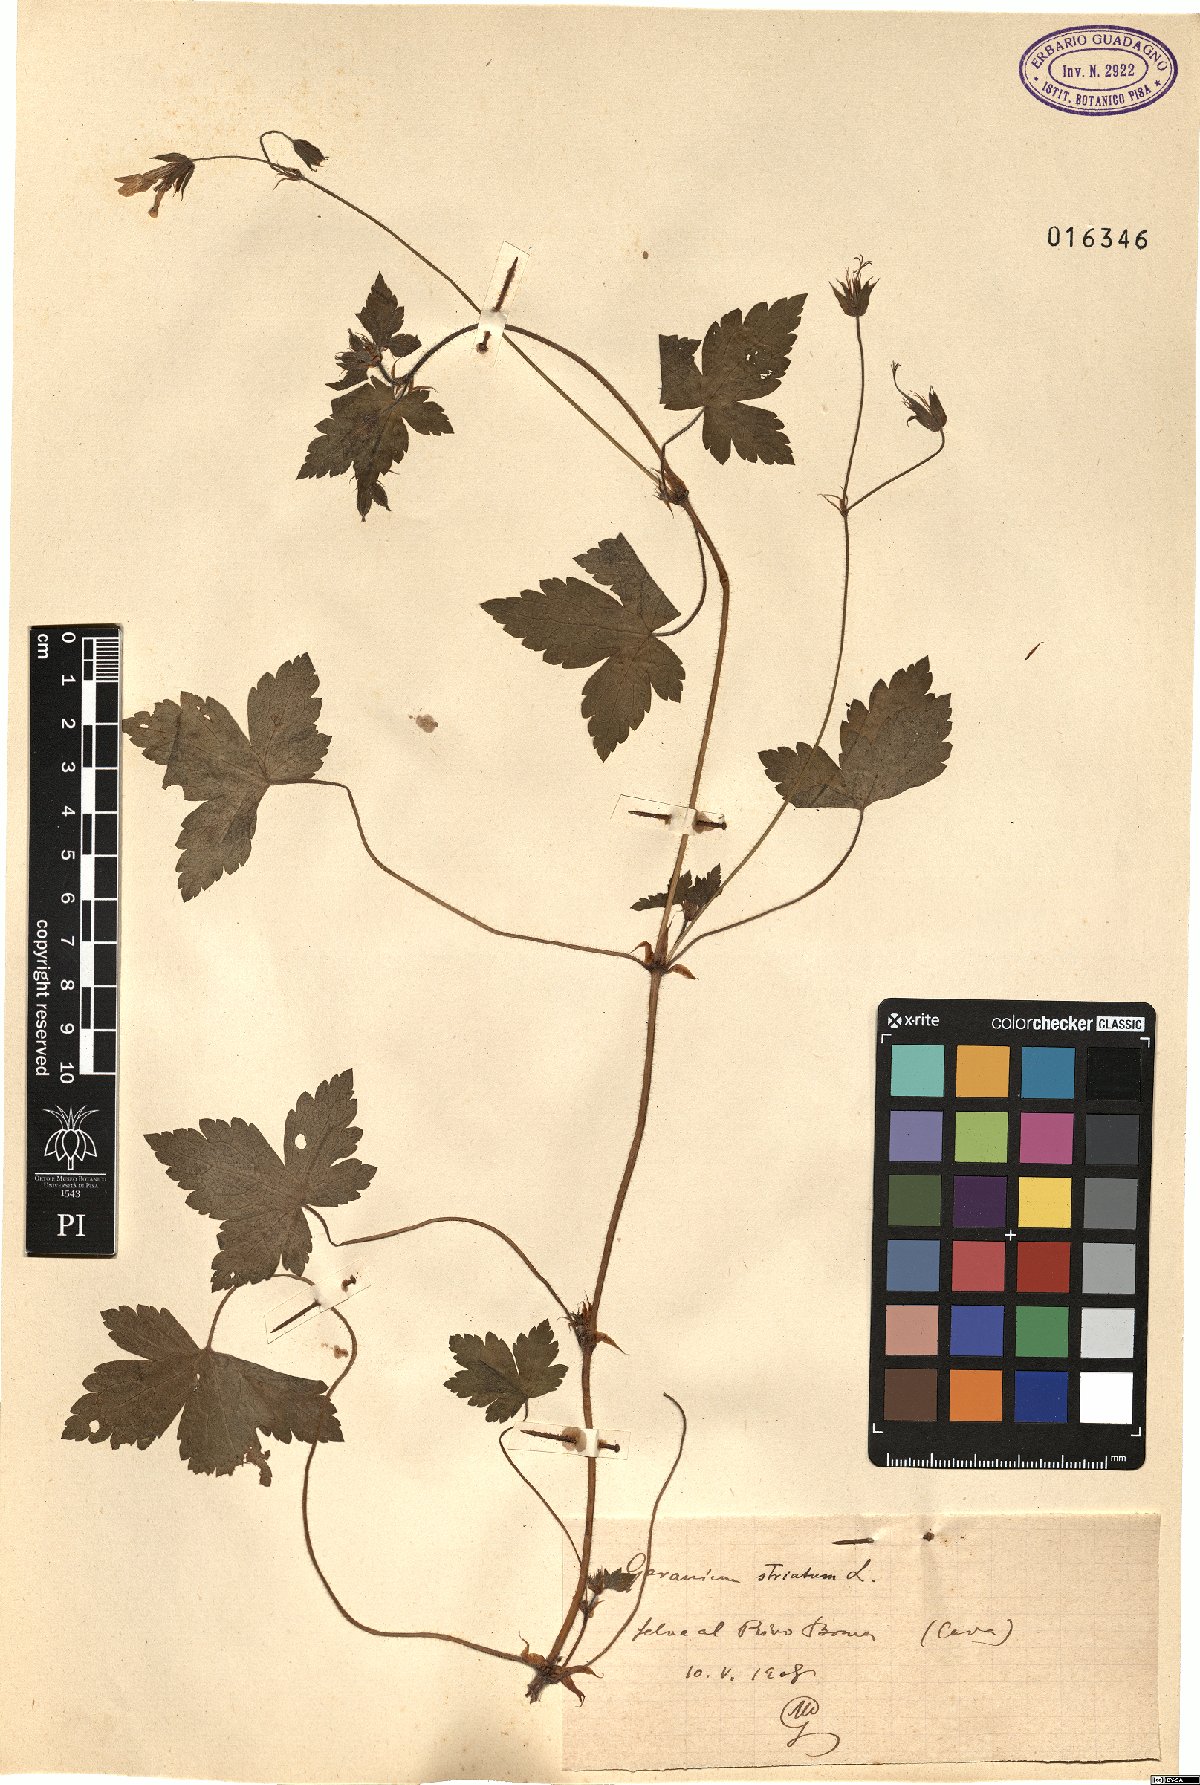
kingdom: Plantae
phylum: Tracheophyta
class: Magnoliopsida
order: Geraniales
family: Geraniaceae
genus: Geranium
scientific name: Geranium versicolor
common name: Pencilled crane's-bill
